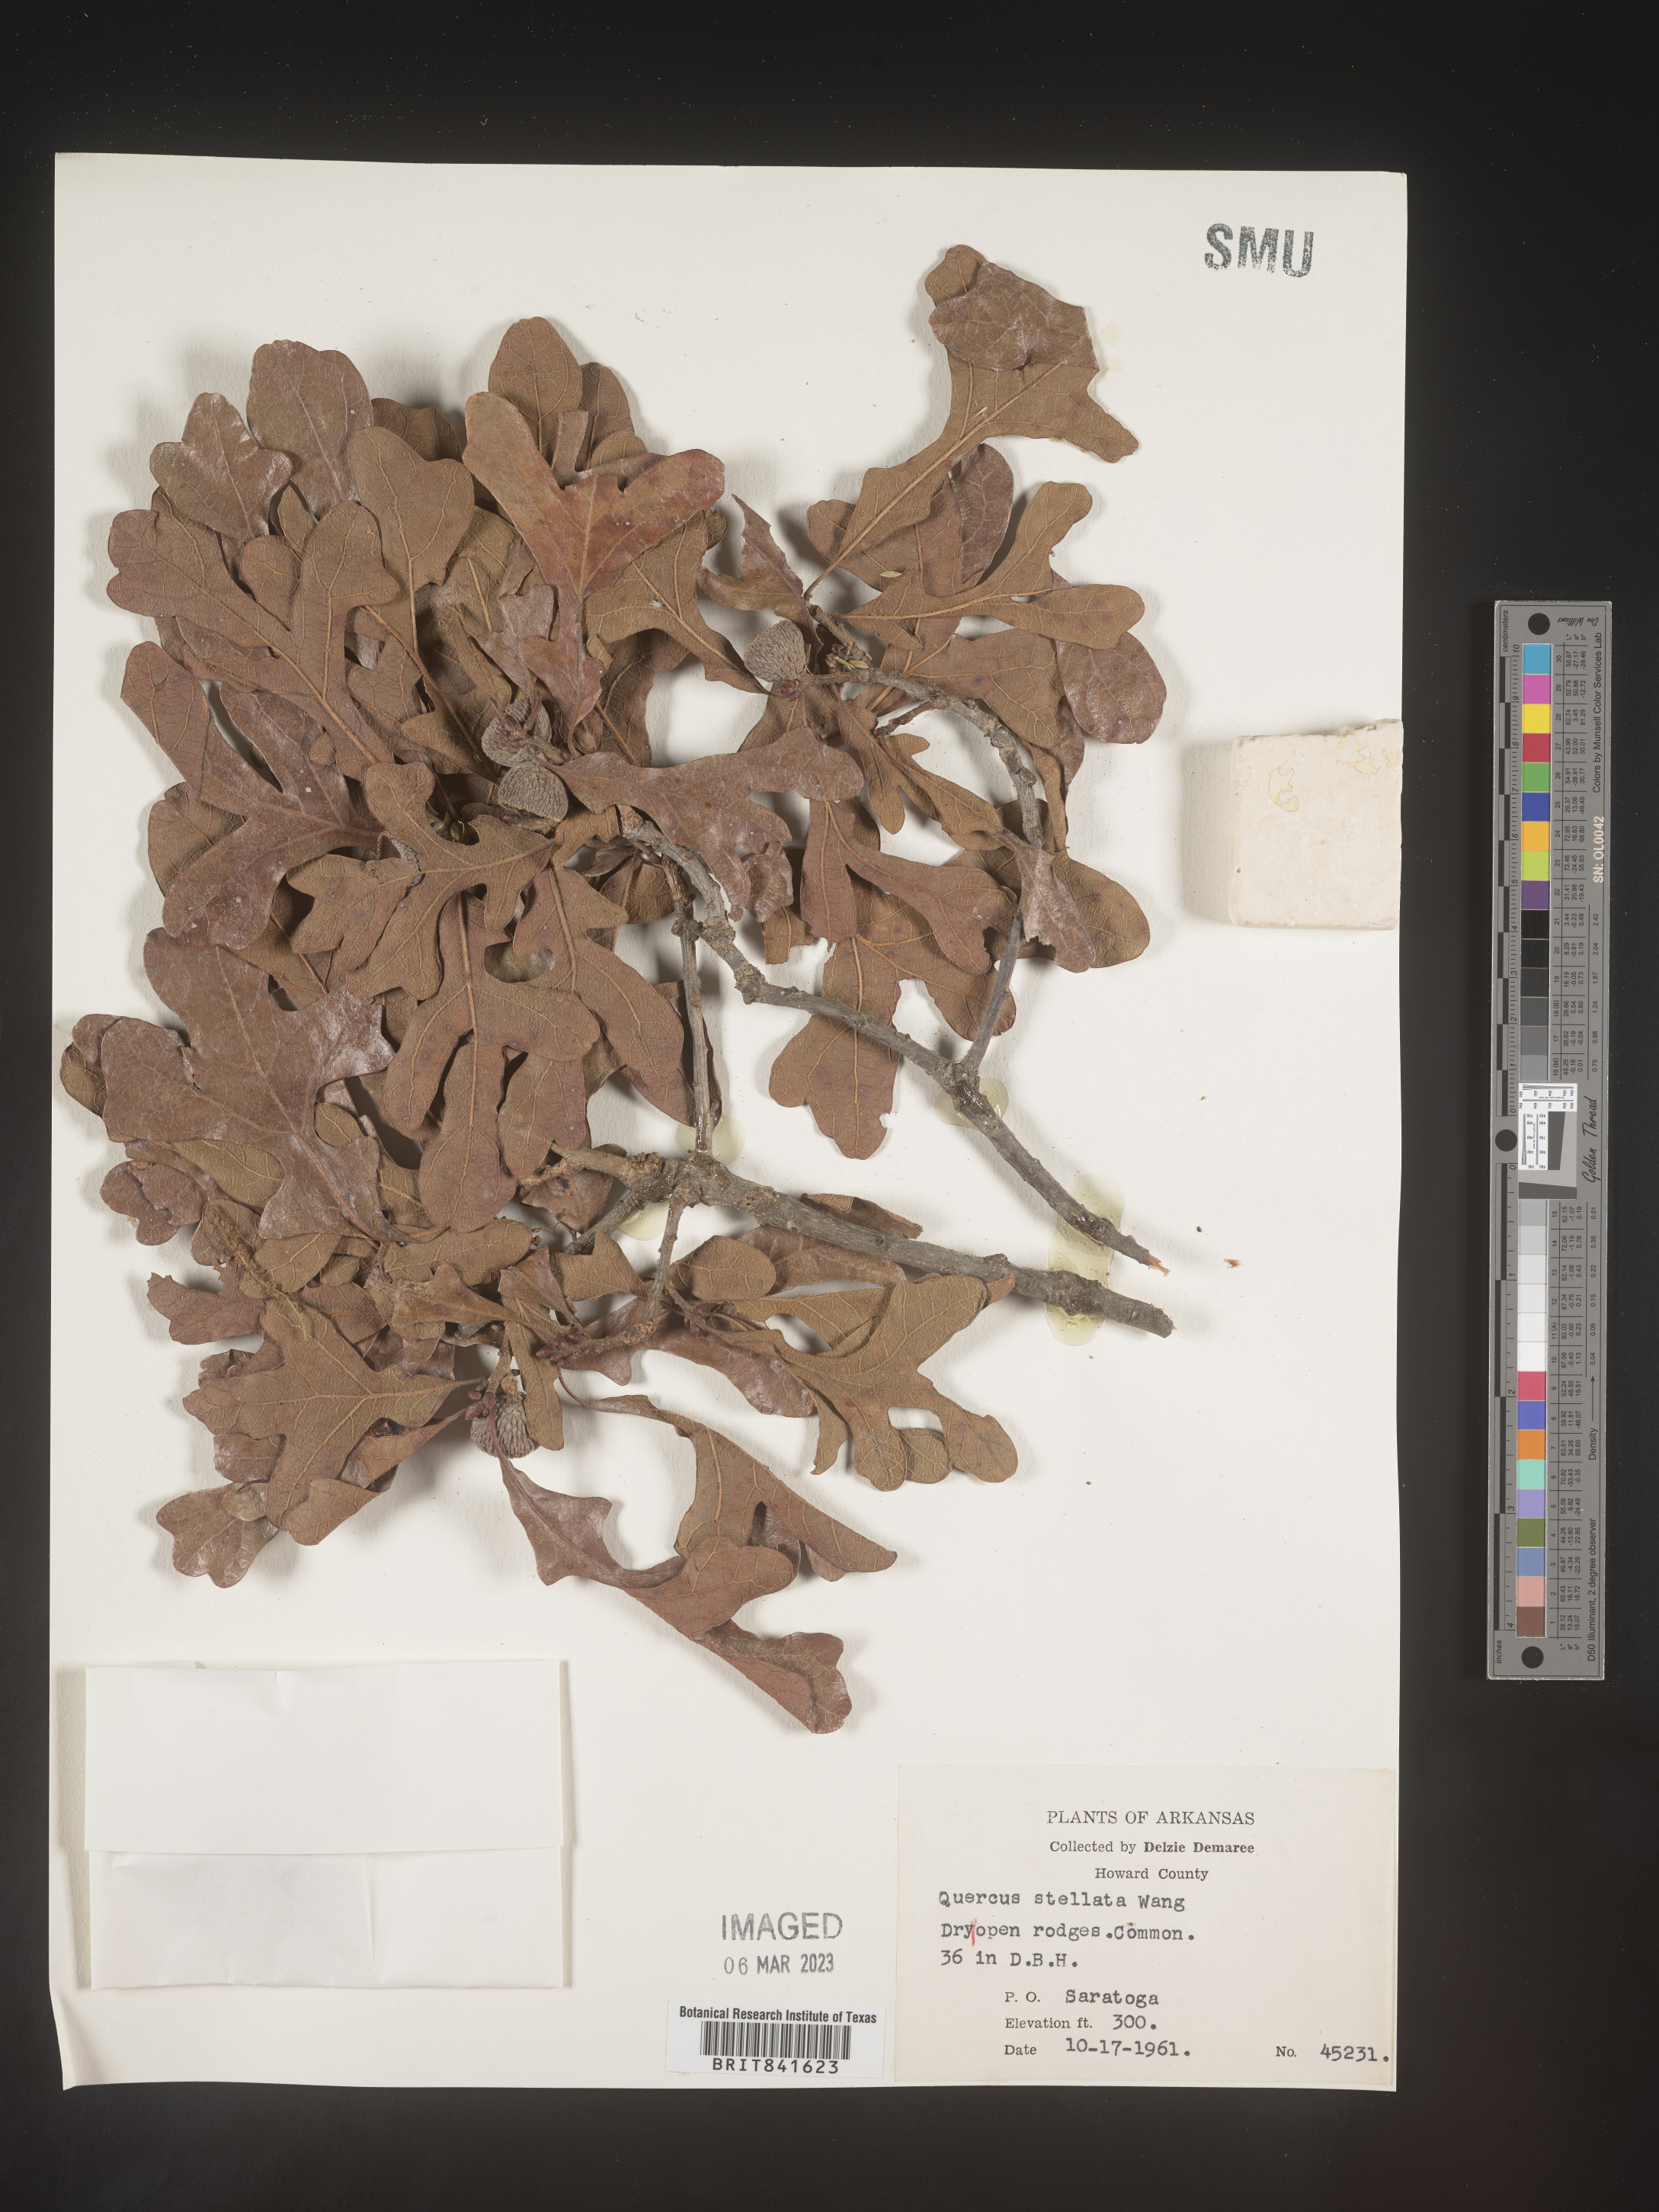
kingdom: Plantae
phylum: Tracheophyta
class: Magnoliopsida
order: Fagales
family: Fagaceae
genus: Quercus
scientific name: Quercus stellata
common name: Post oak
